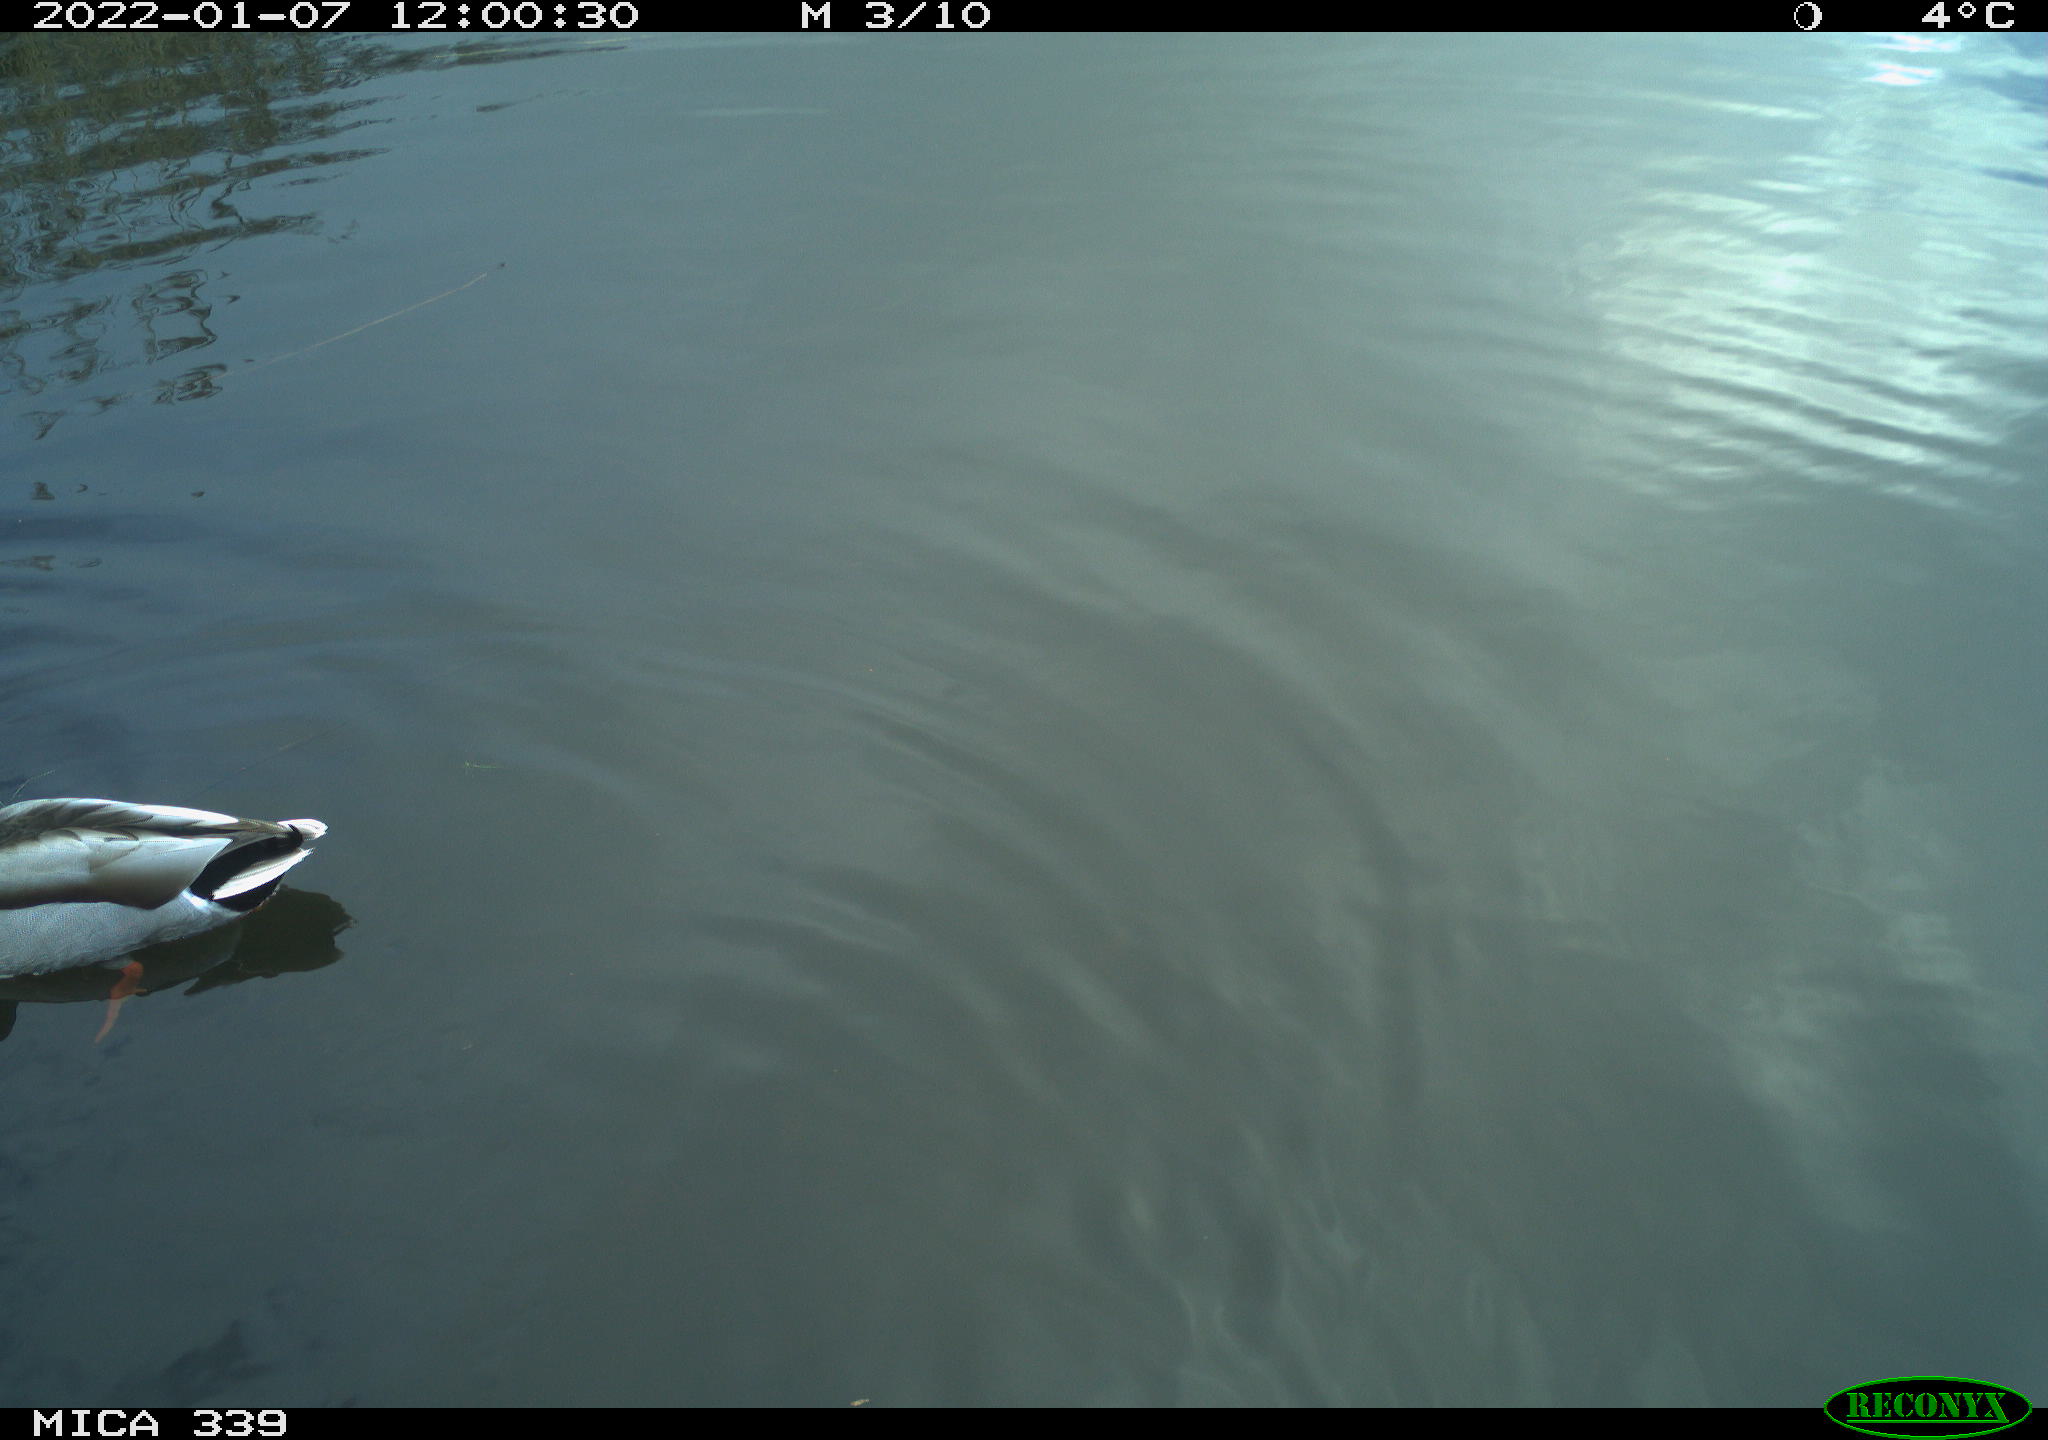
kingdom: Animalia
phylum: Chordata
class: Aves
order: Anseriformes
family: Anatidae
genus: Anas
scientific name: Anas platyrhynchos
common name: Mallard
